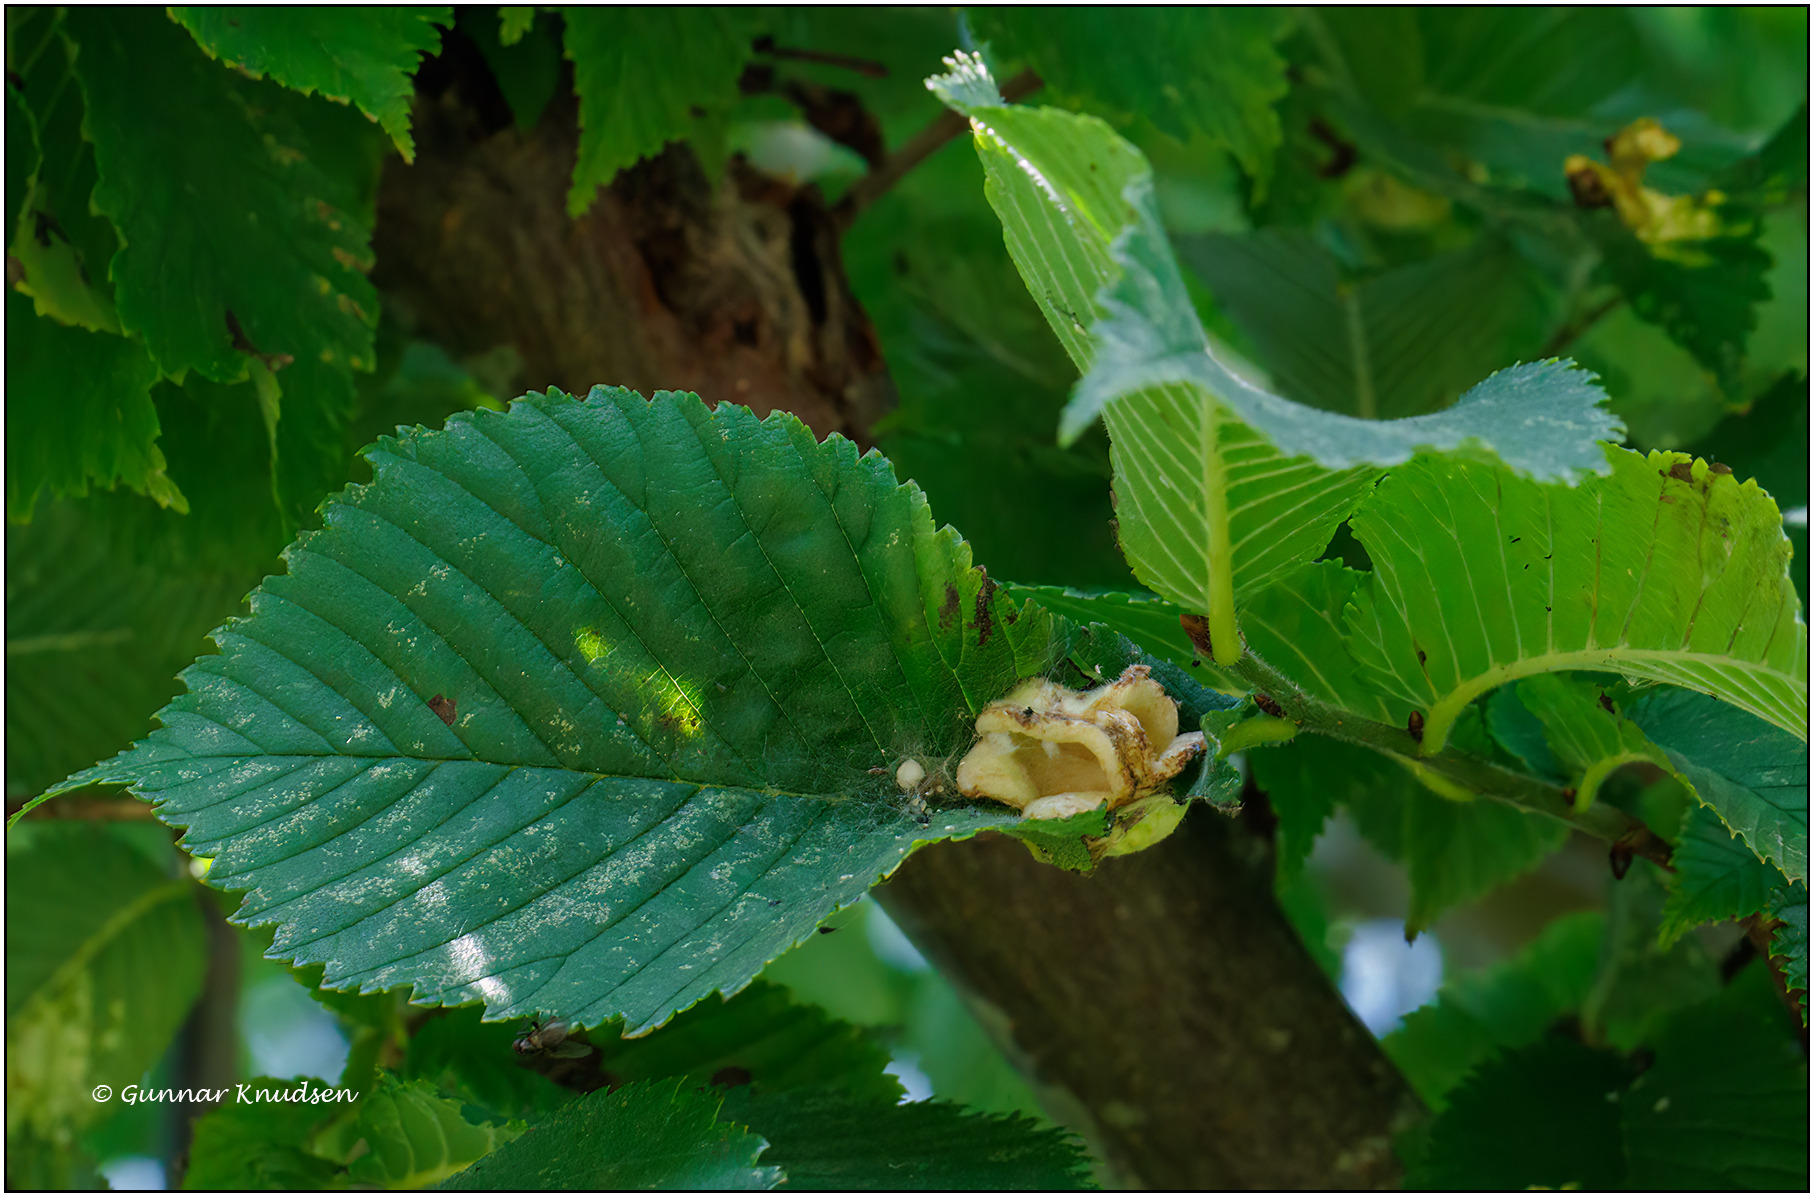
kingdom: Animalia
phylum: Arthropoda
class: Insecta
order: Hemiptera
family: Aphididae
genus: Kaltenbachiella
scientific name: Kaltenbachiella pallida
